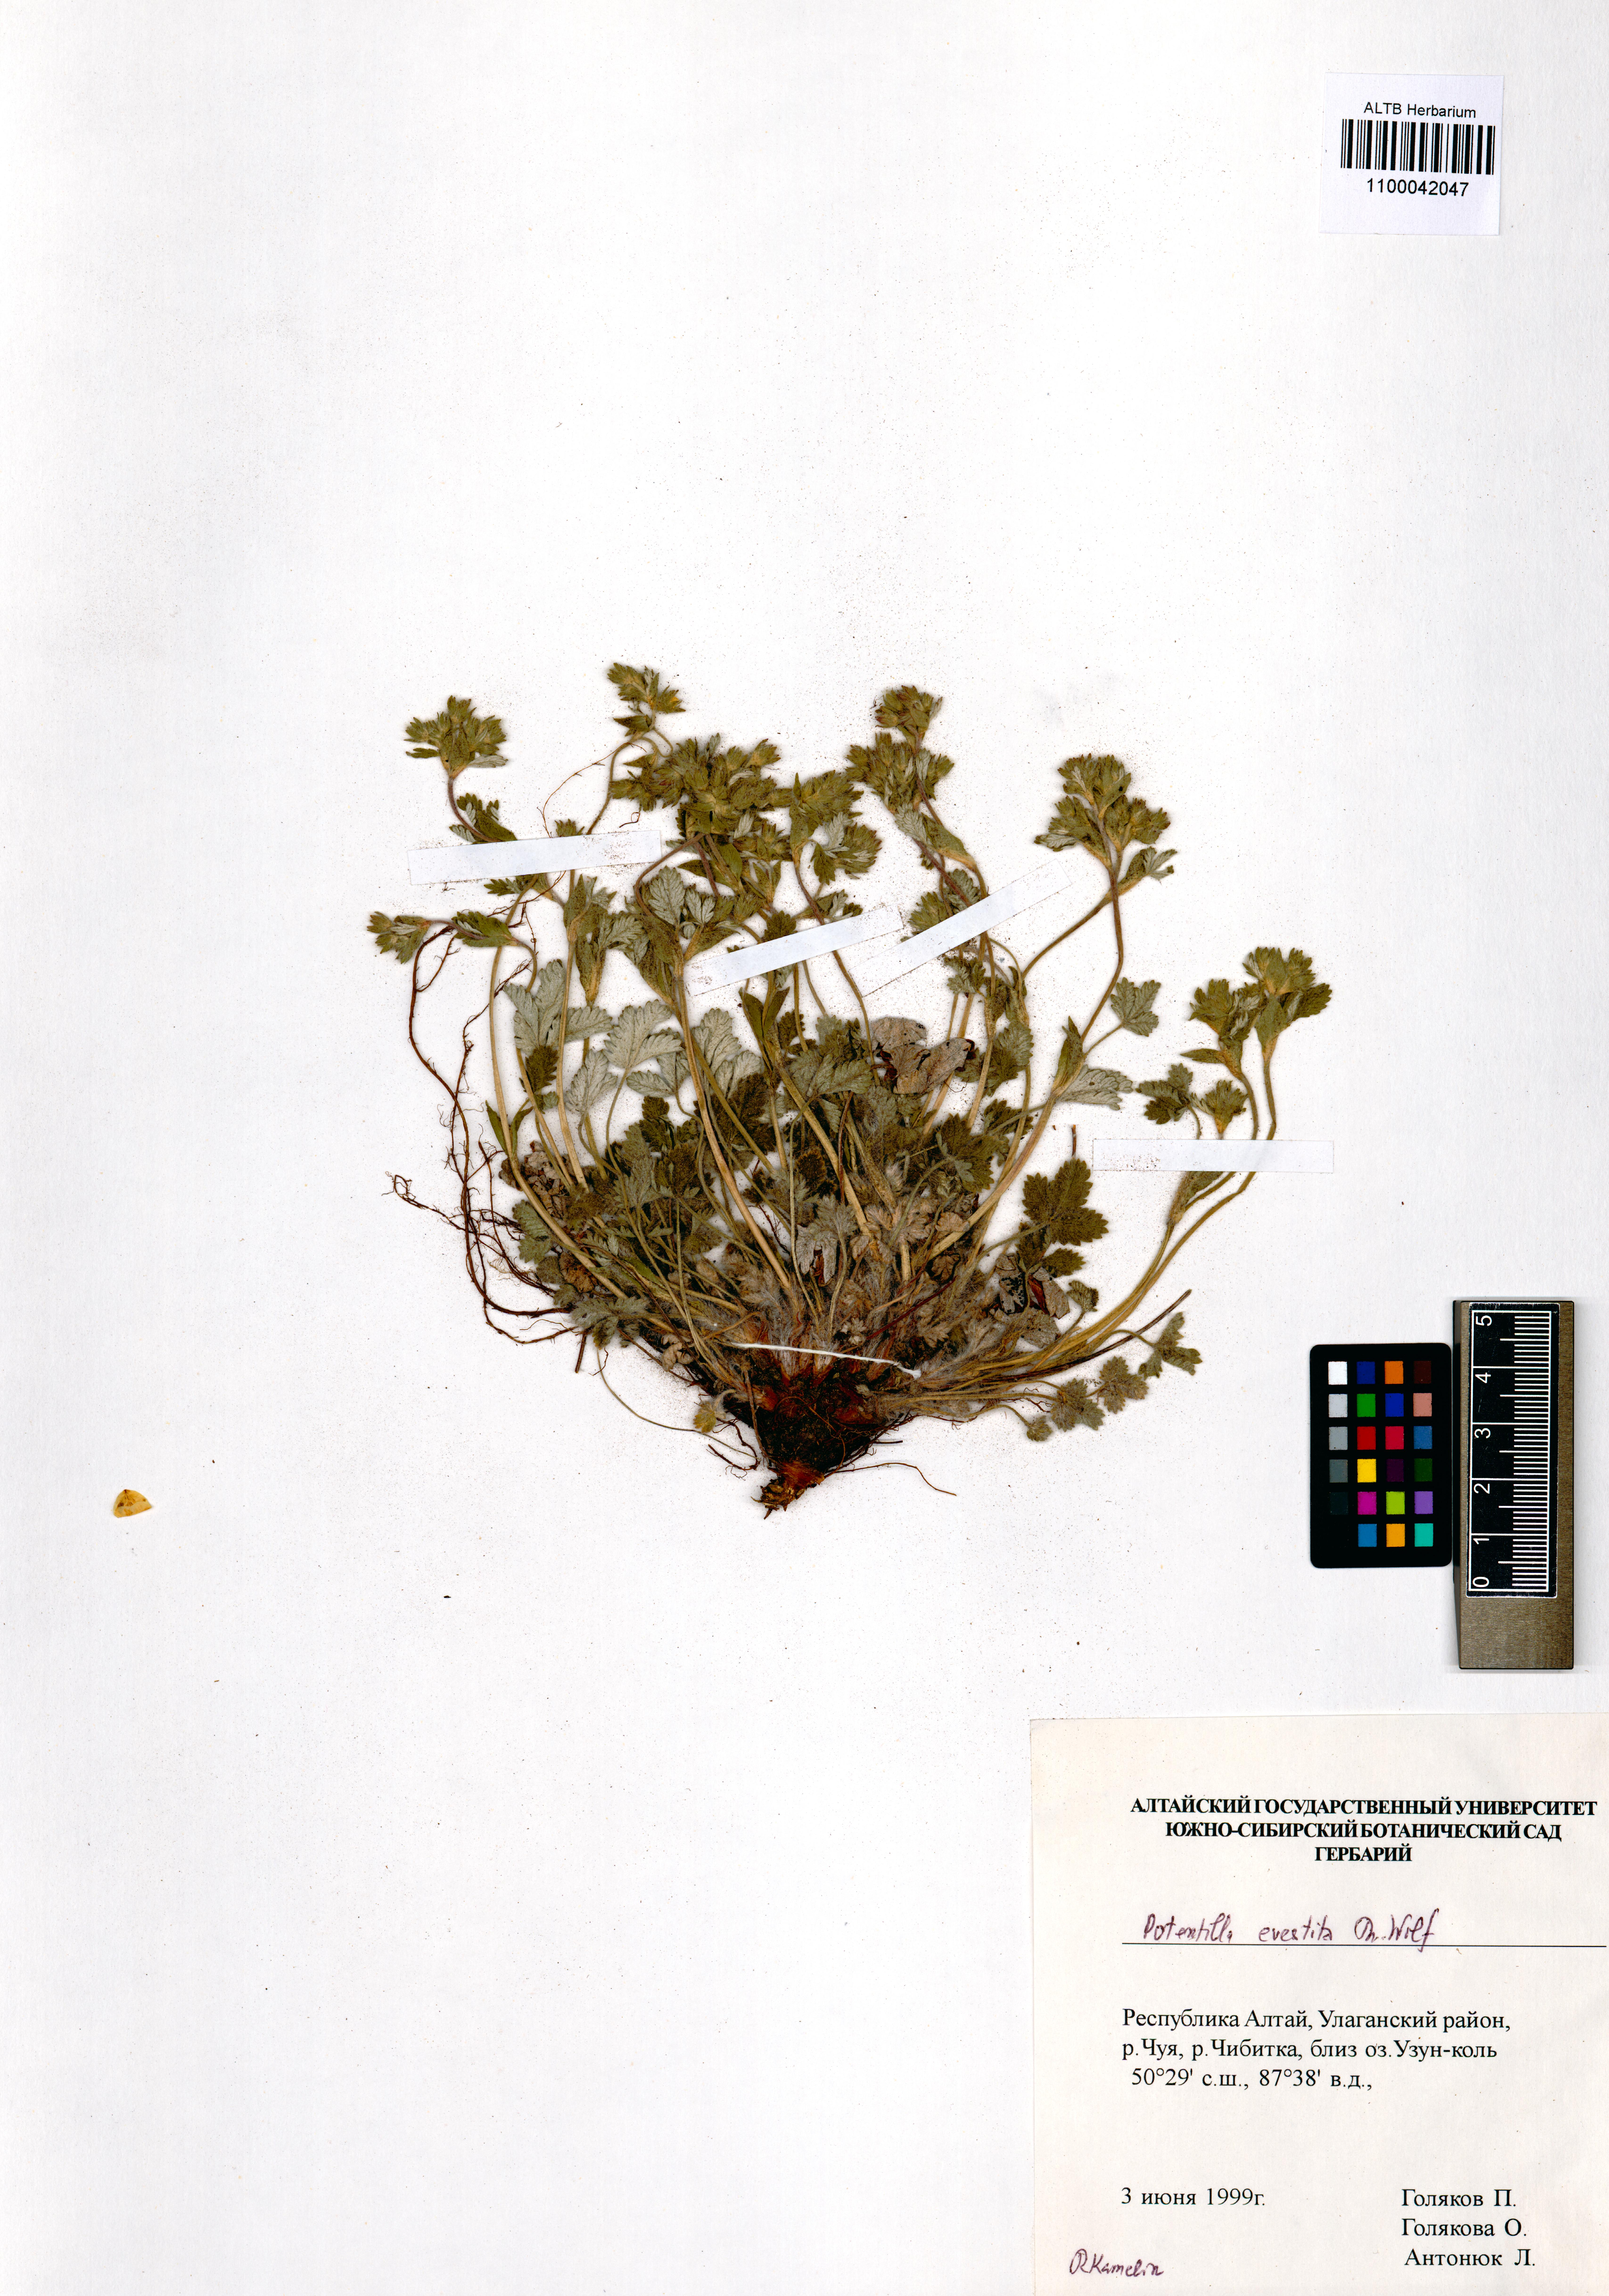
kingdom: Plantae
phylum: Tracheophyta
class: Magnoliopsida
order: Rosales
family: Rosaceae
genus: Potentilla
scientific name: Potentilla evestita
